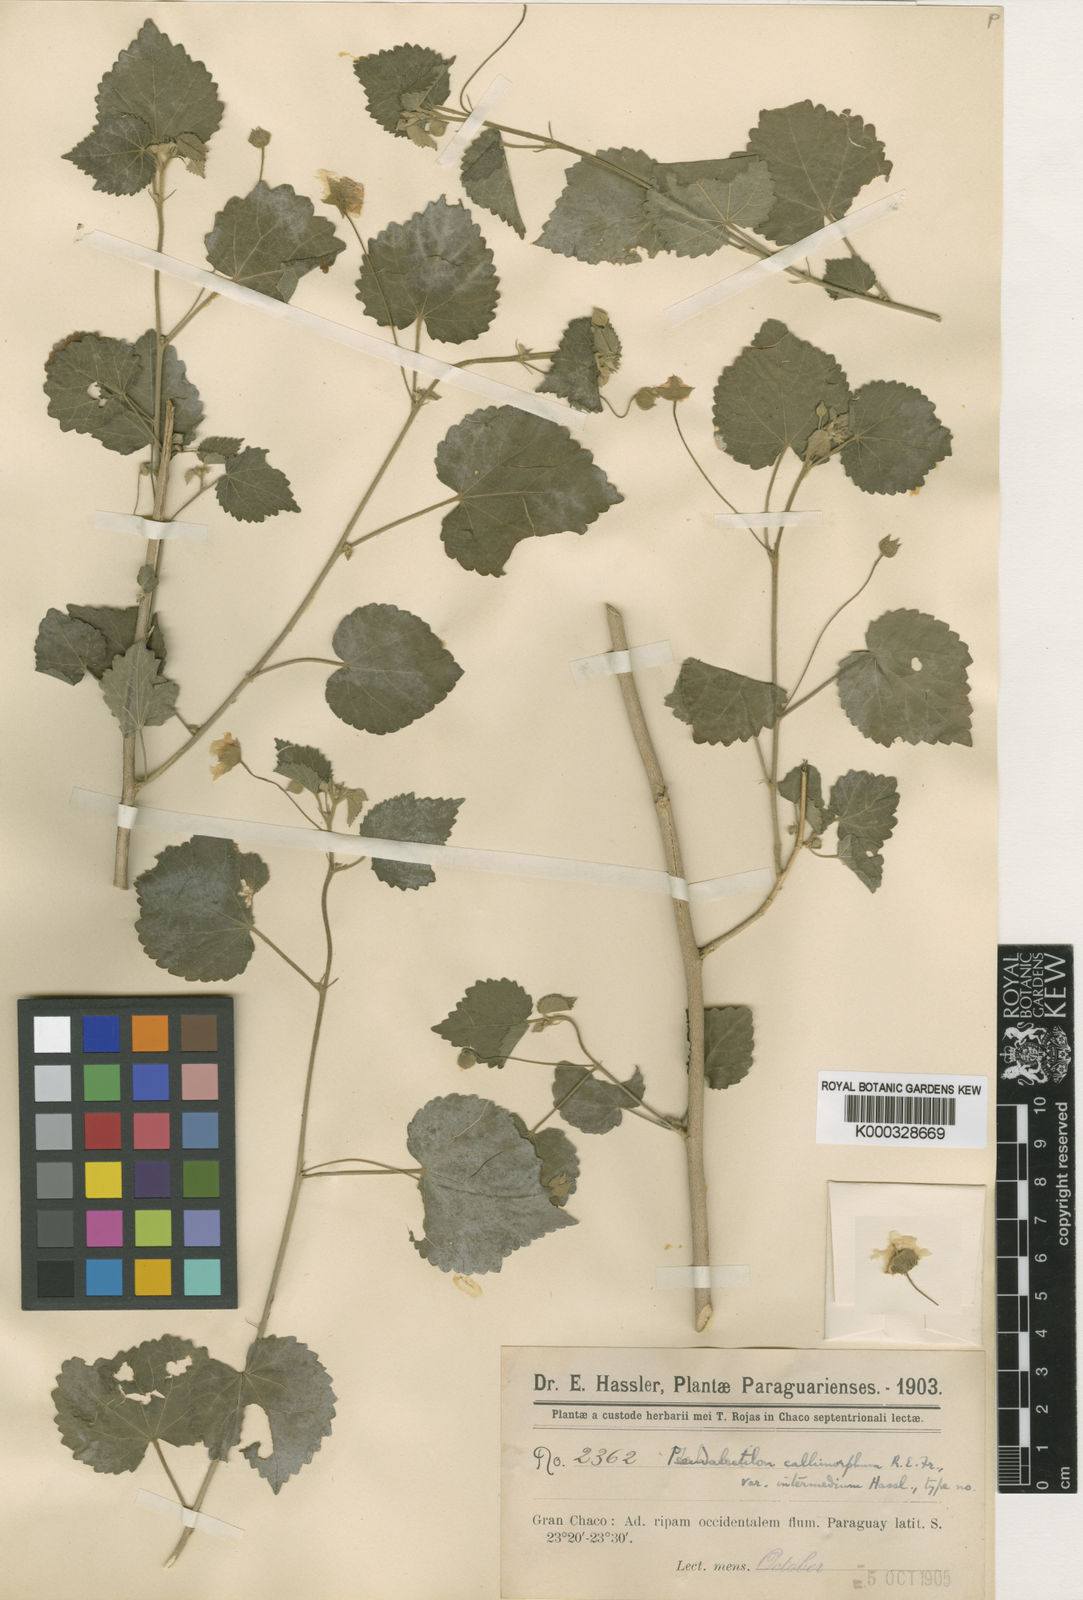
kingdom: Plantae
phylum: Tracheophyta
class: Magnoliopsida
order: Malvales
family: Malvaceae
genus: Pseudabutilon
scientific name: Pseudabutilon callimorphum
